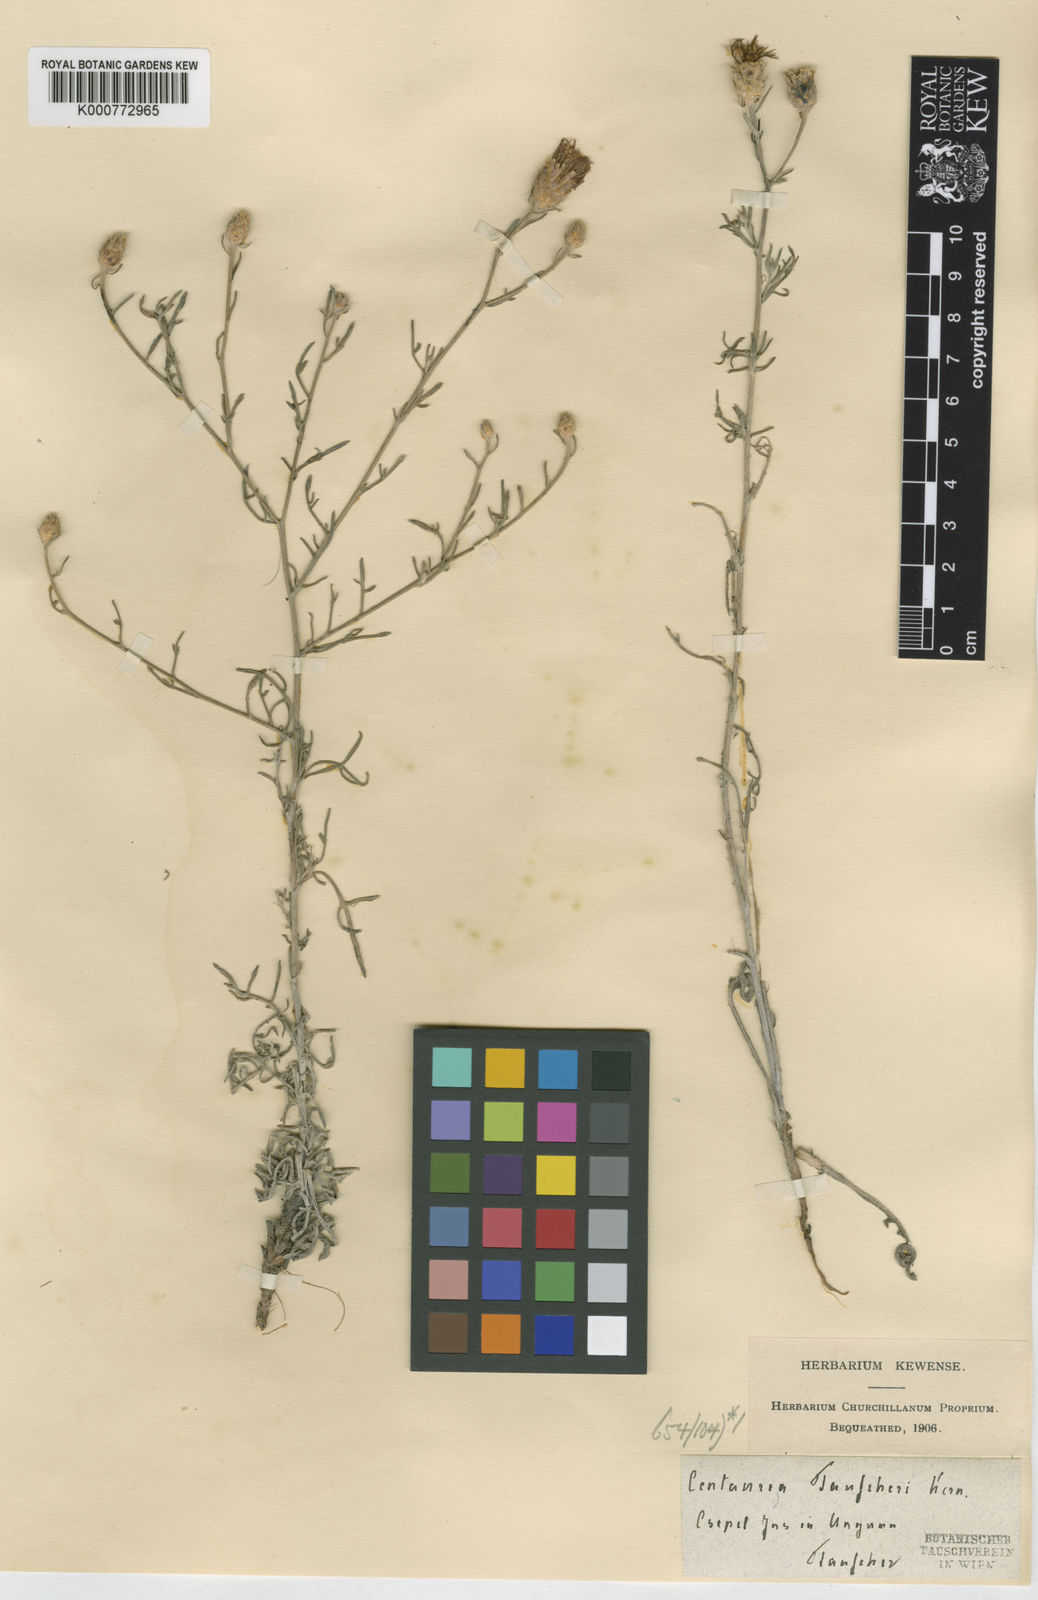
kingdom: Plantae
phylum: Tracheophyta
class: Magnoliopsida
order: Asterales
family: Asteraceae
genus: Centaurea
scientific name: Centaurea tauscheri
